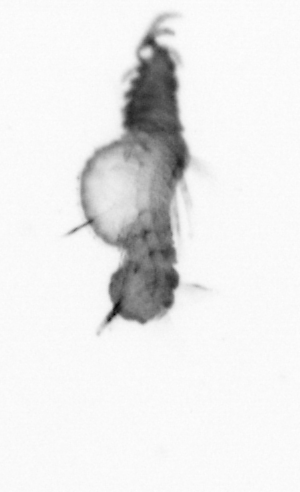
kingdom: Animalia
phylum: Annelida
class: Polychaeta
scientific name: Polychaeta
